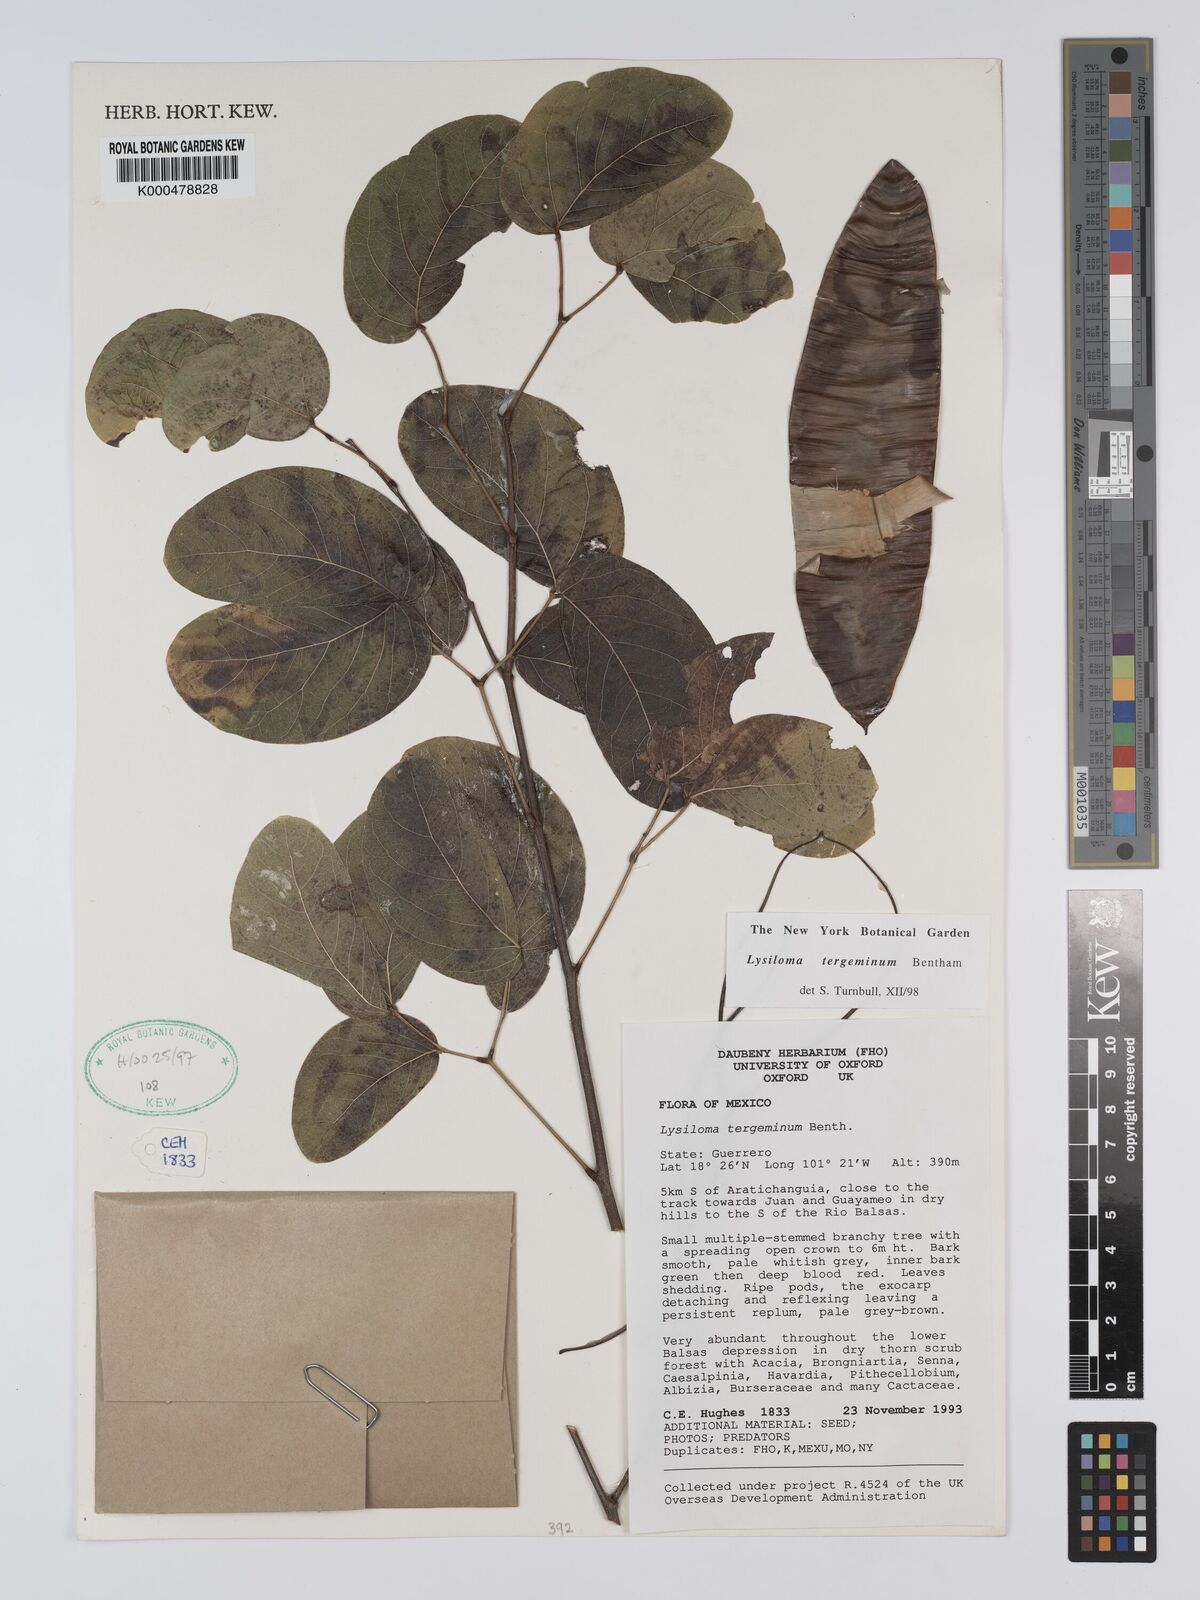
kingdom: Plantae
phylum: Tracheophyta
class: Magnoliopsida
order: Fabales
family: Fabaceae
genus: Lysiloma
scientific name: Lysiloma tergeminum
